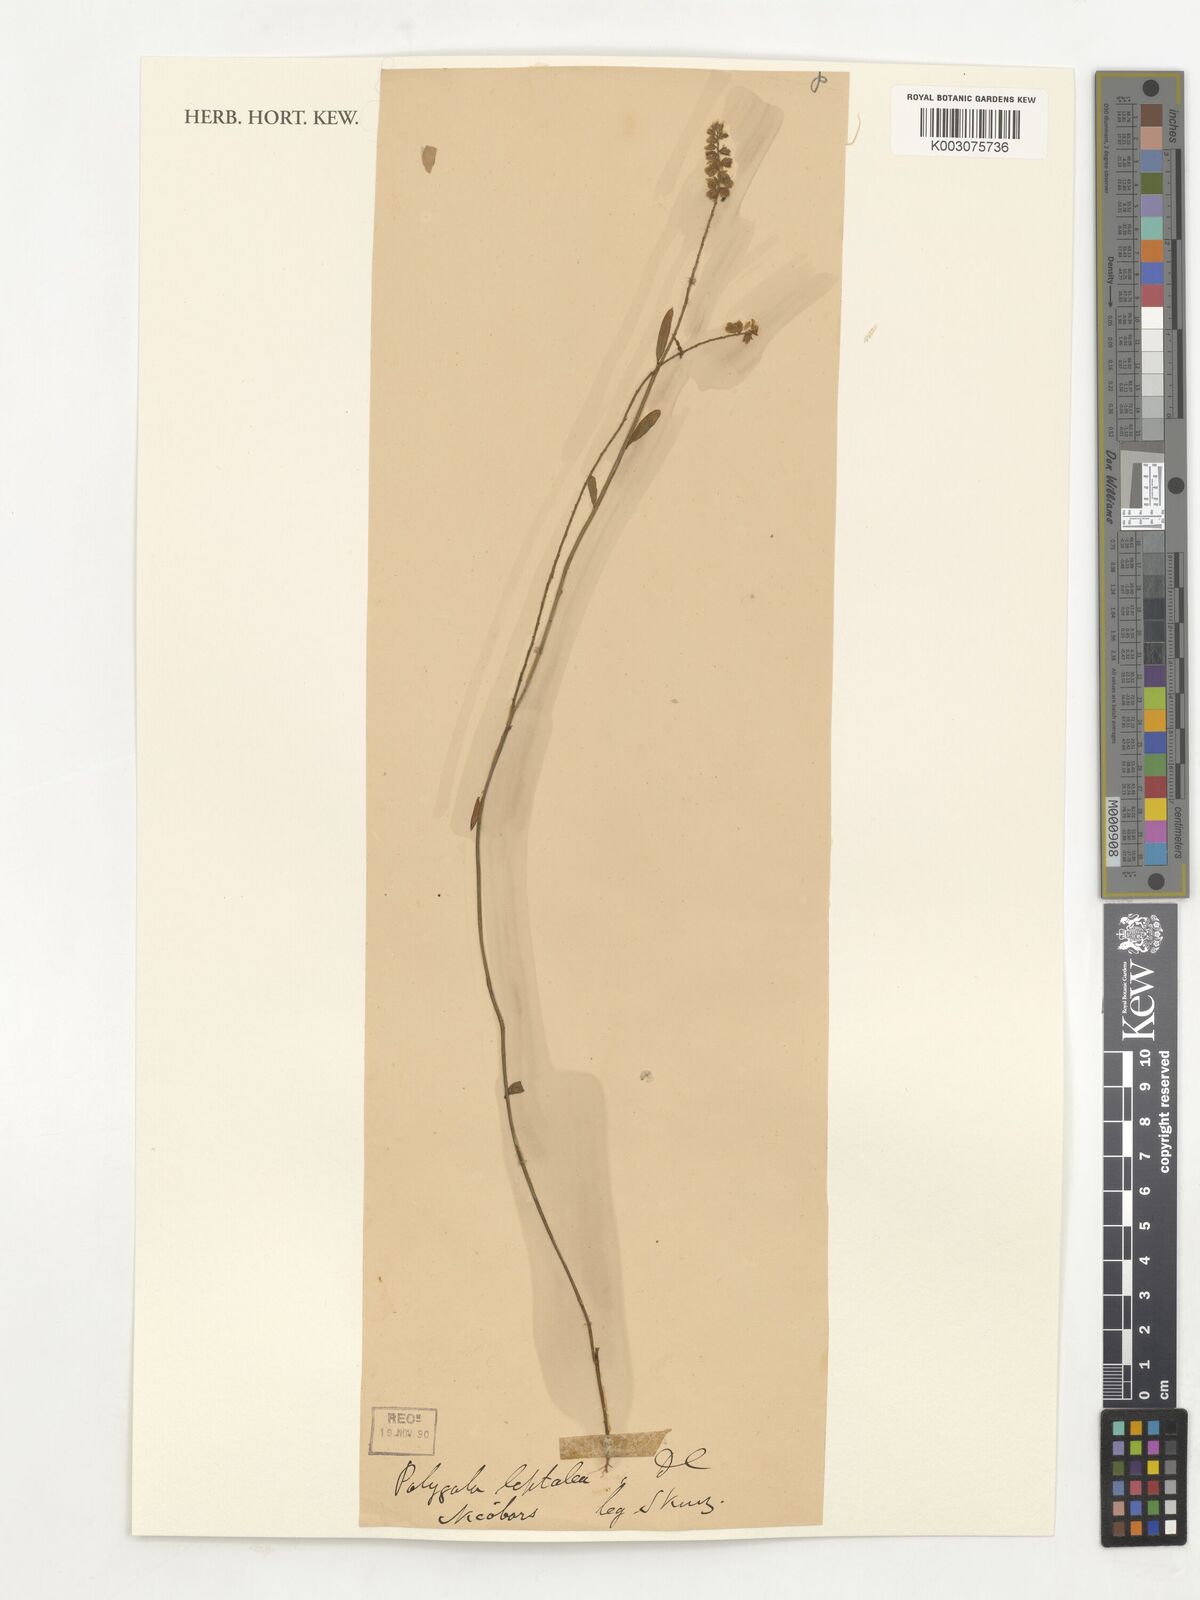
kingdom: Plantae
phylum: Tracheophyta
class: Magnoliopsida
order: Fabales
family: Polygalaceae
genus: Polygala
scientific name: Polygala longifolia
